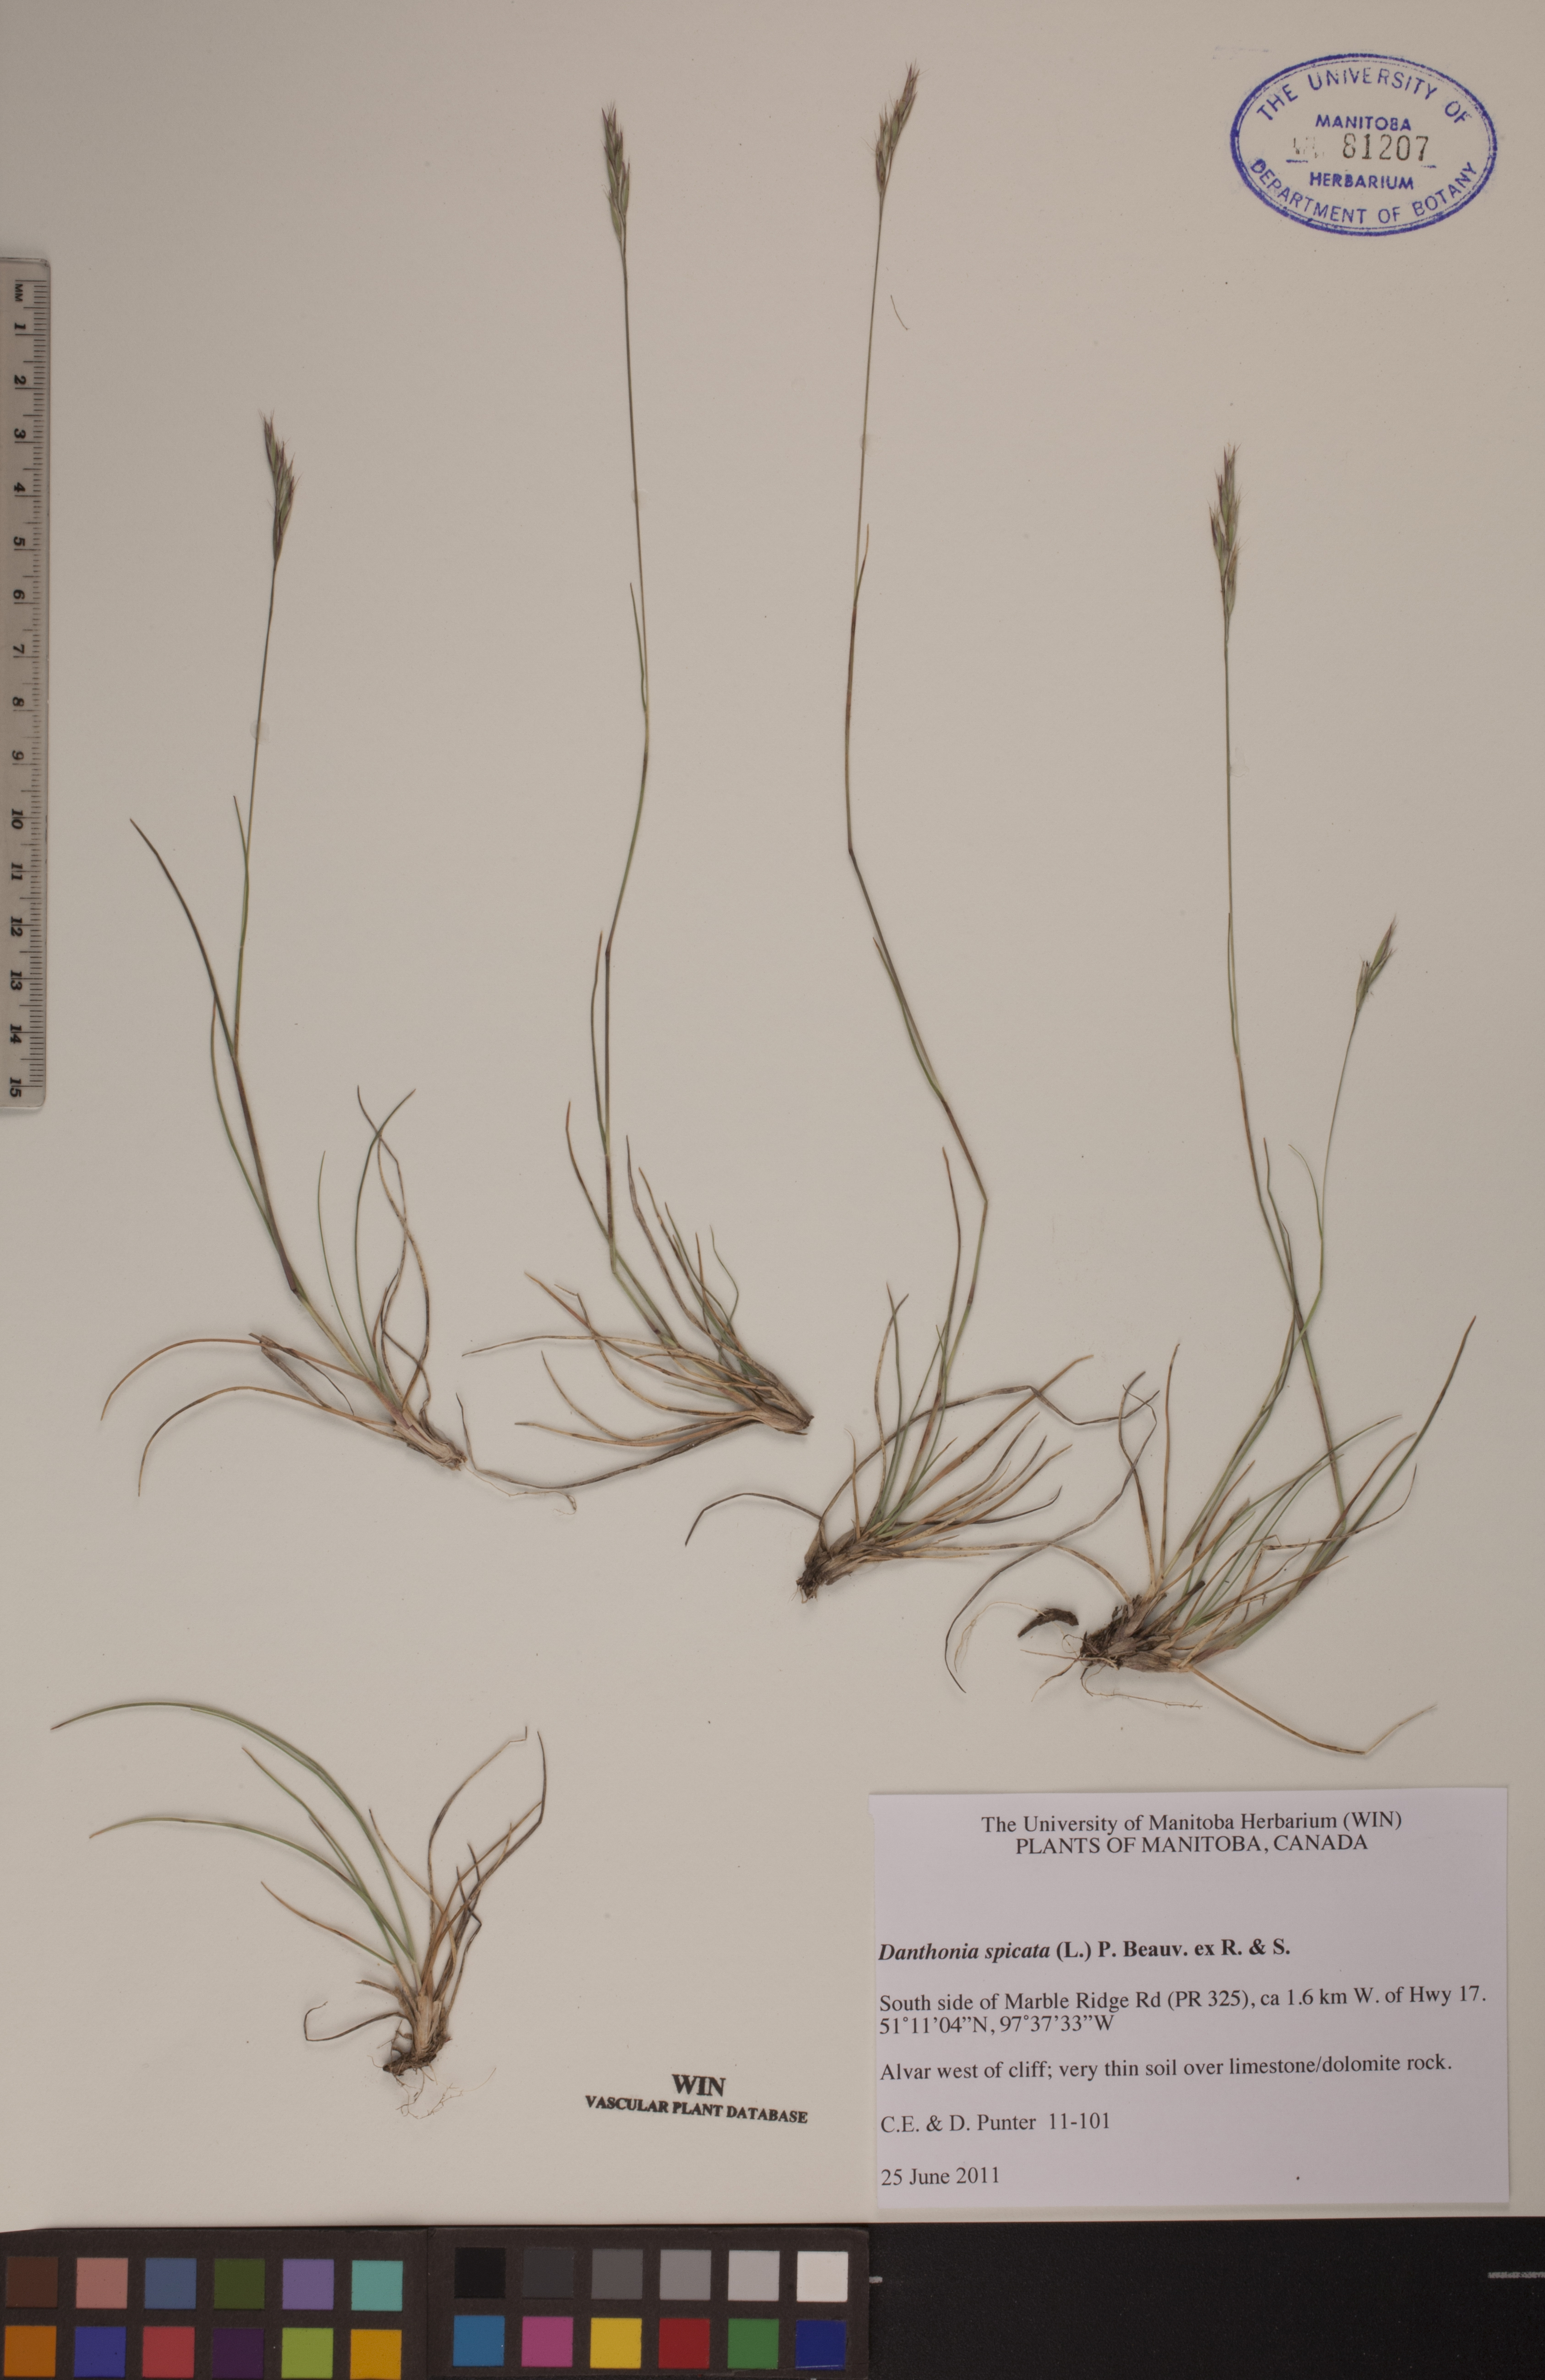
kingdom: Plantae
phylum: Tracheophyta
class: Liliopsida
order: Poales
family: Poaceae
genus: Danthonia
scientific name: Danthonia spicata
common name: Common wild oatgrass
